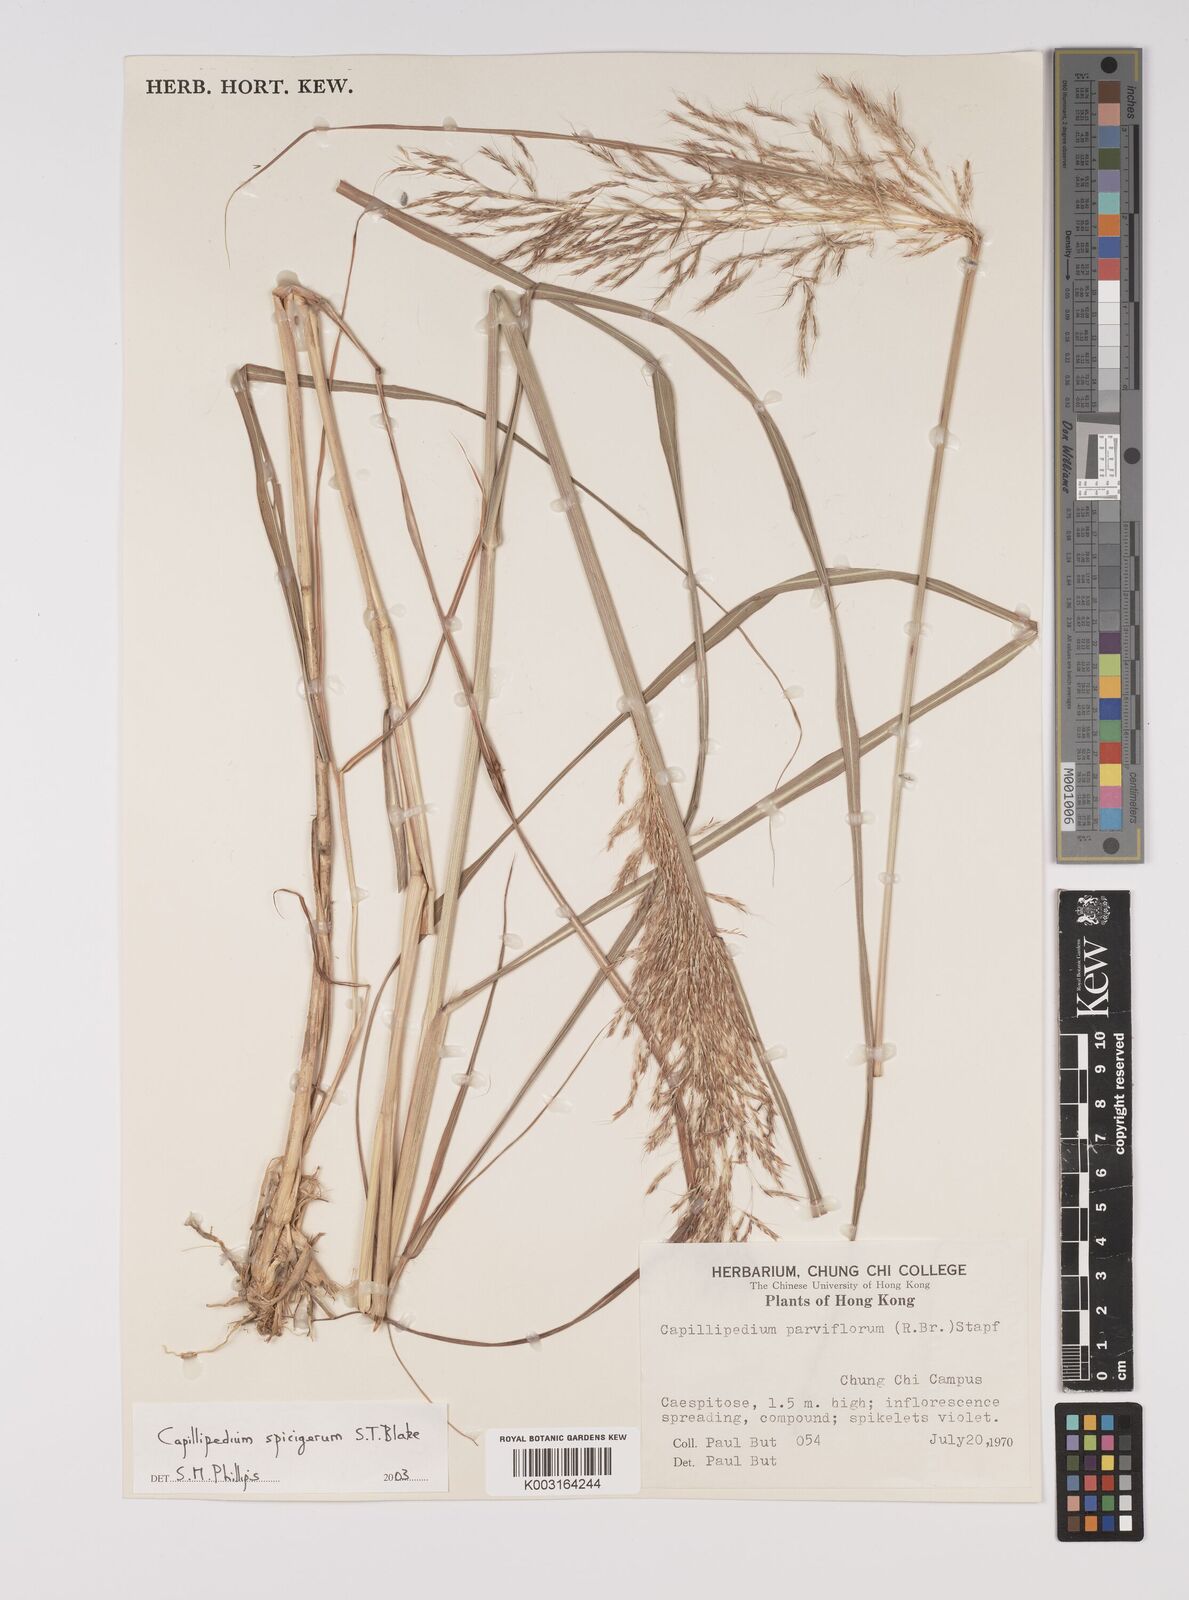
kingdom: Plantae
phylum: Tracheophyta
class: Liliopsida
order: Poales
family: Poaceae
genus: Capillipedium
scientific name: Capillipedium spicigerum
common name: Scented-top grass
